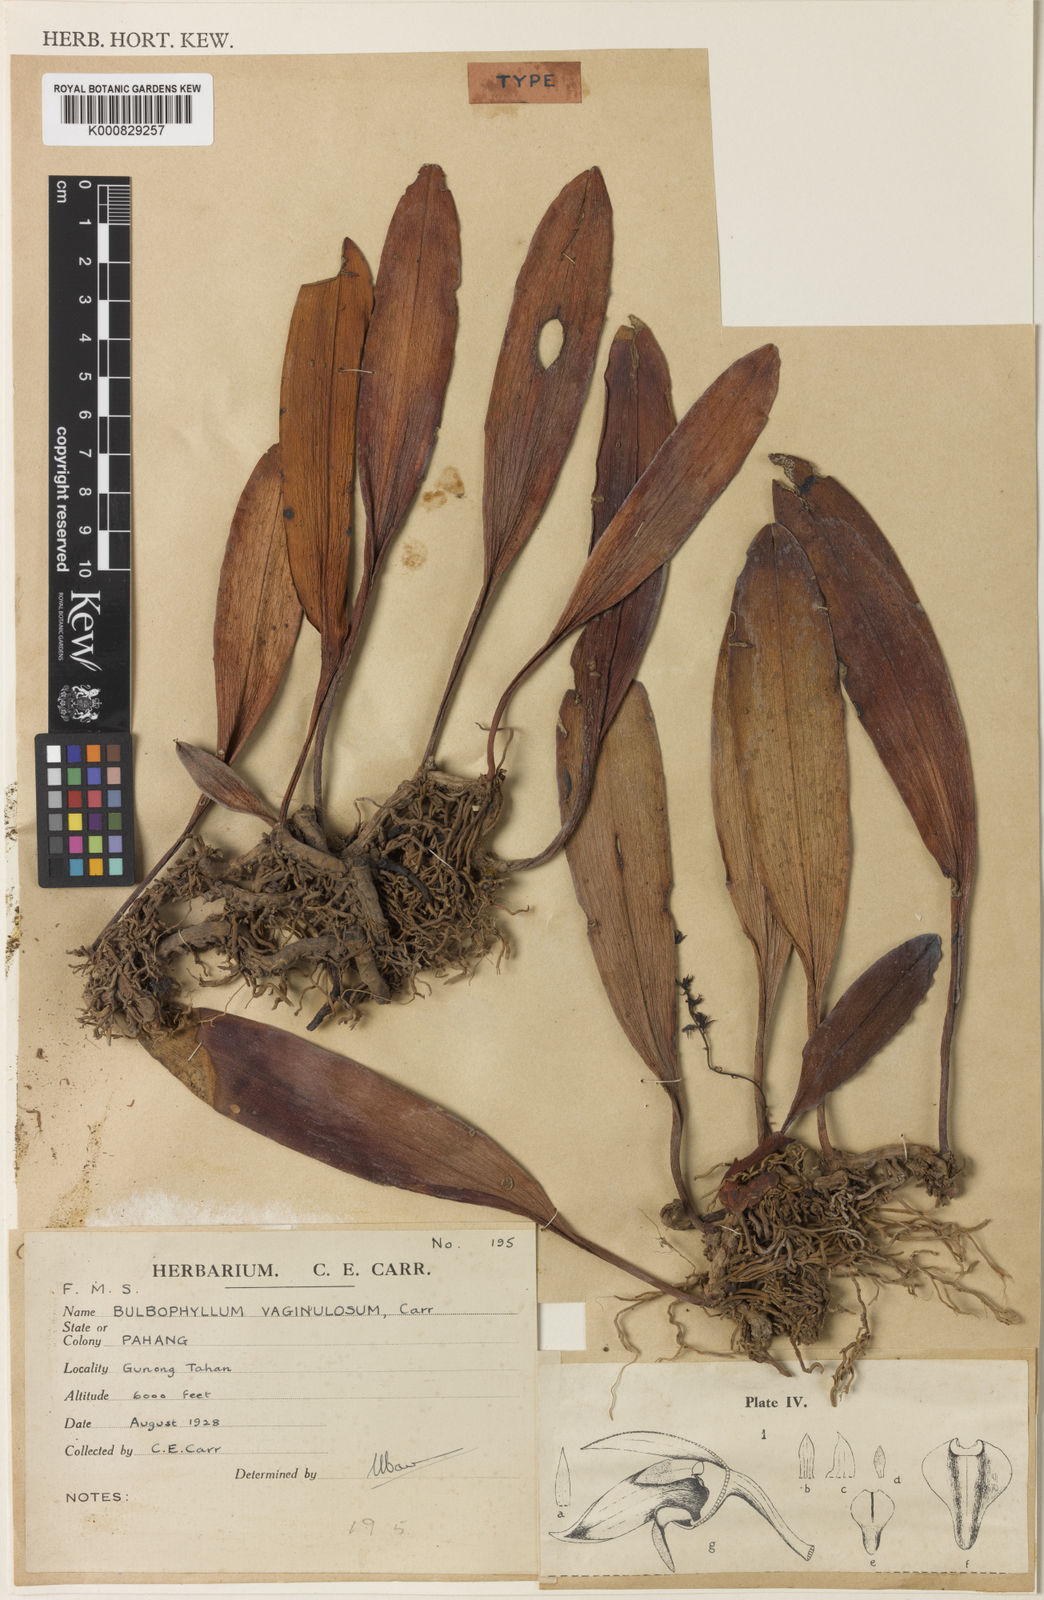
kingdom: Plantae
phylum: Tracheophyta
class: Liliopsida
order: Asparagales
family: Orchidaceae
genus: Bulbophyllum
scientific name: Bulbophyllum apodum
